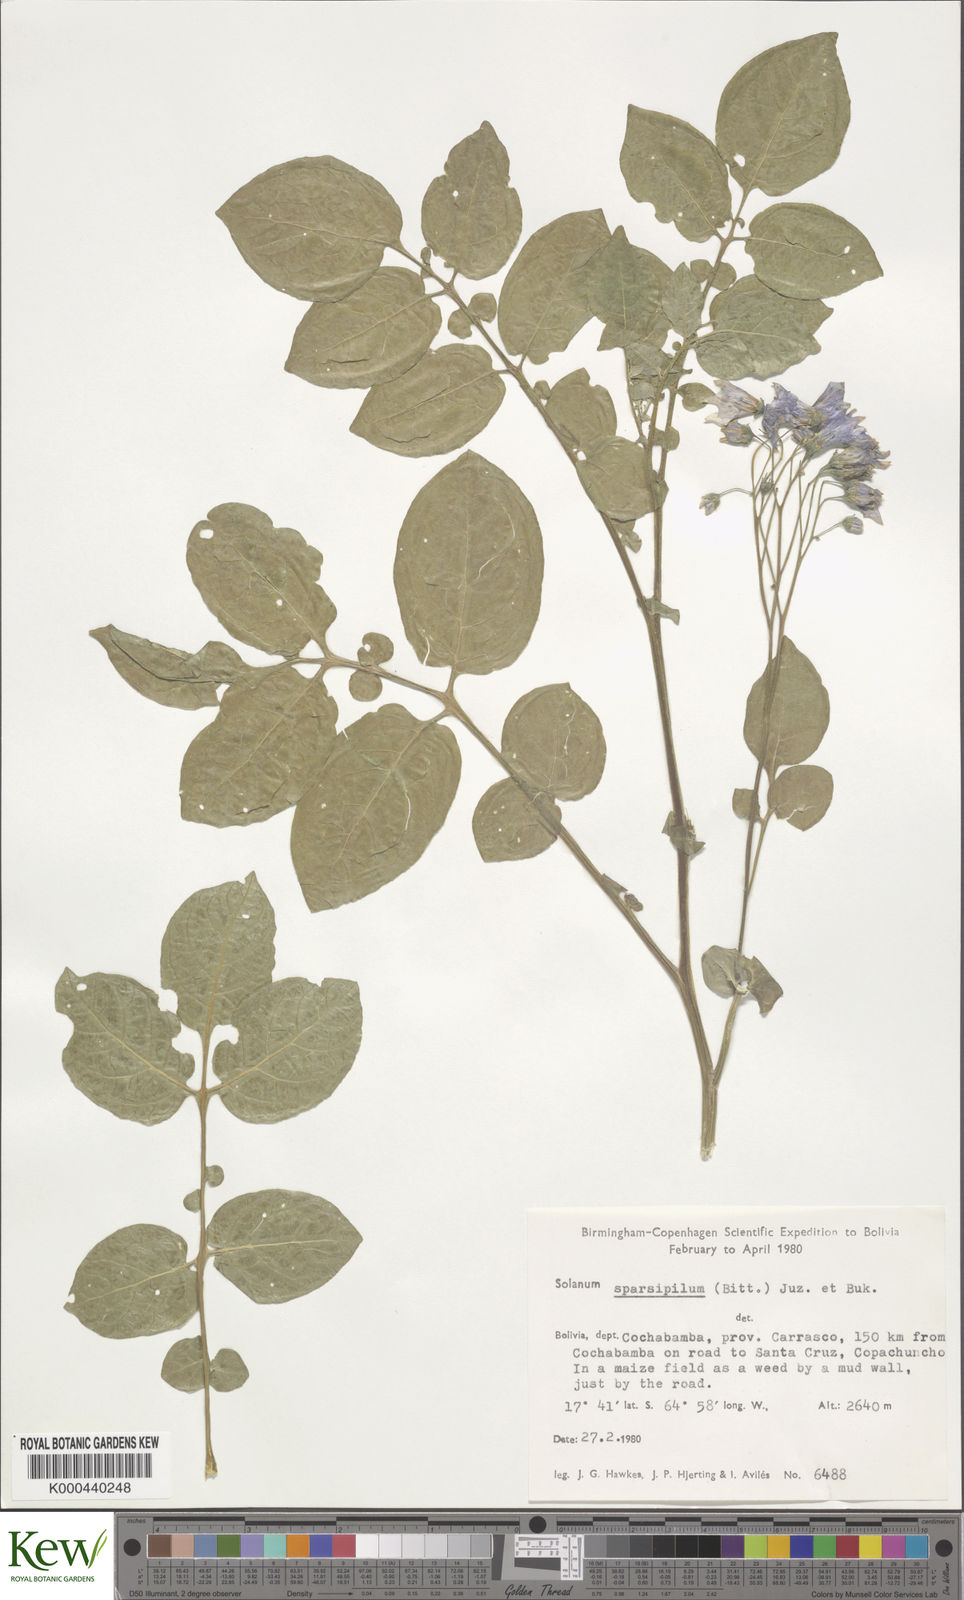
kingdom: Plantae
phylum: Tracheophyta
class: Magnoliopsida
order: Solanales
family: Solanaceae
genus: Solanum
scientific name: Solanum brevicaule
